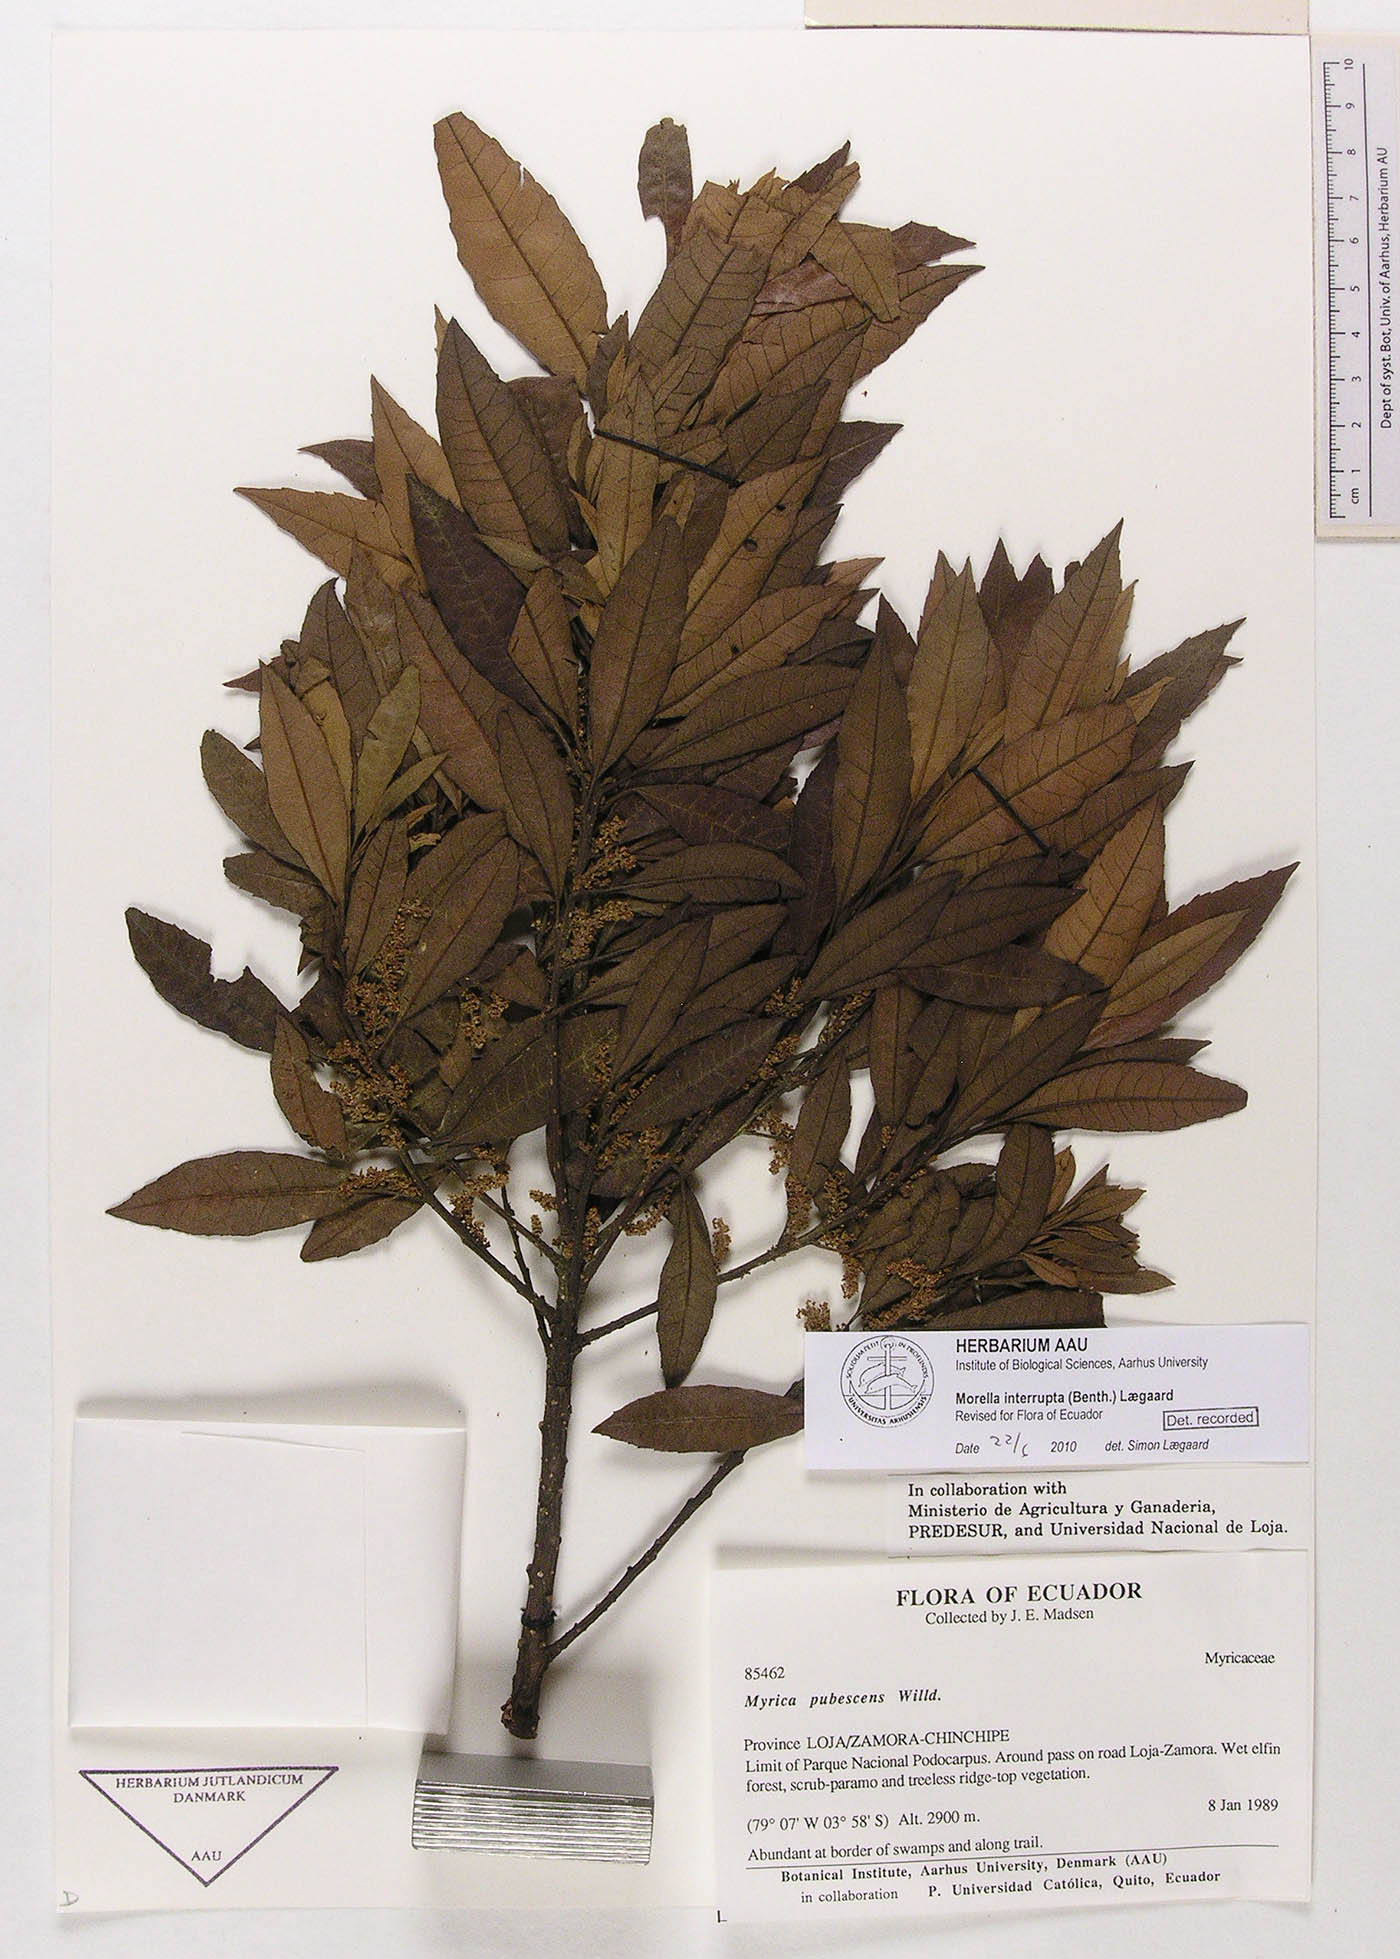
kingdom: Plantae
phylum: Tracheophyta
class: Magnoliopsida
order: Fagales
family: Myricaceae
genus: Morella
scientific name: Morella interrupta
